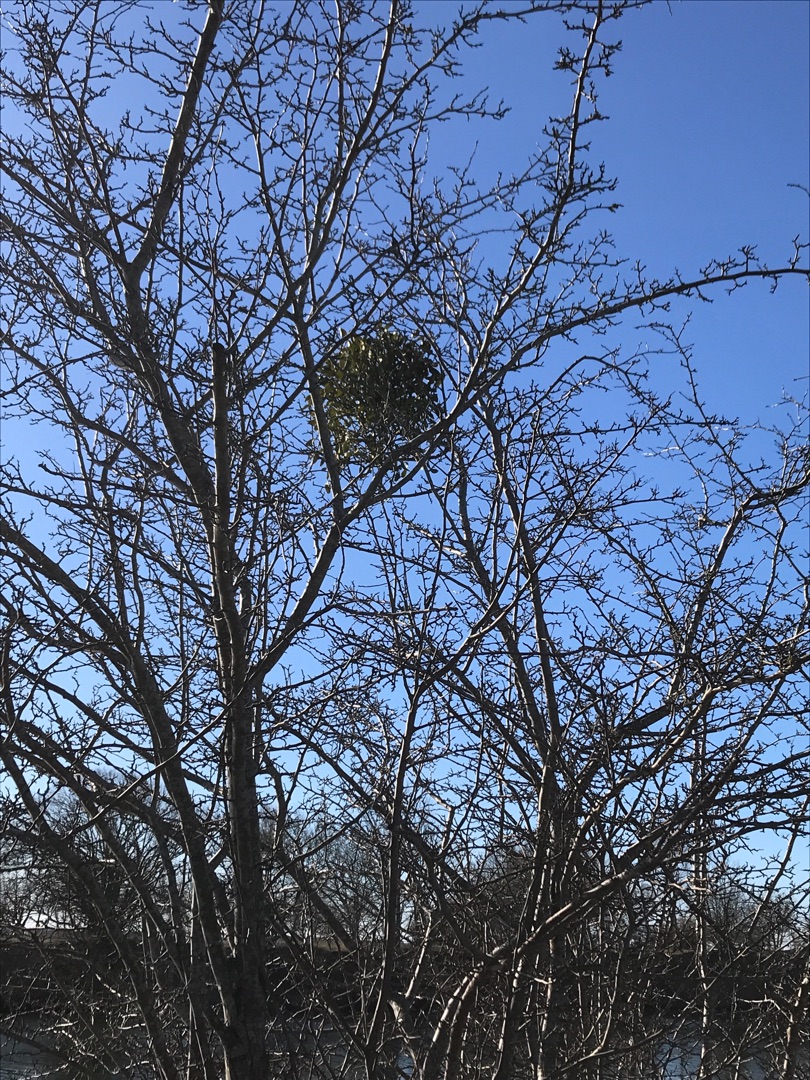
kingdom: Plantae
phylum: Tracheophyta
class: Magnoliopsida
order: Santalales
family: Viscaceae
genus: Viscum
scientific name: Viscum album
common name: Mistelten
